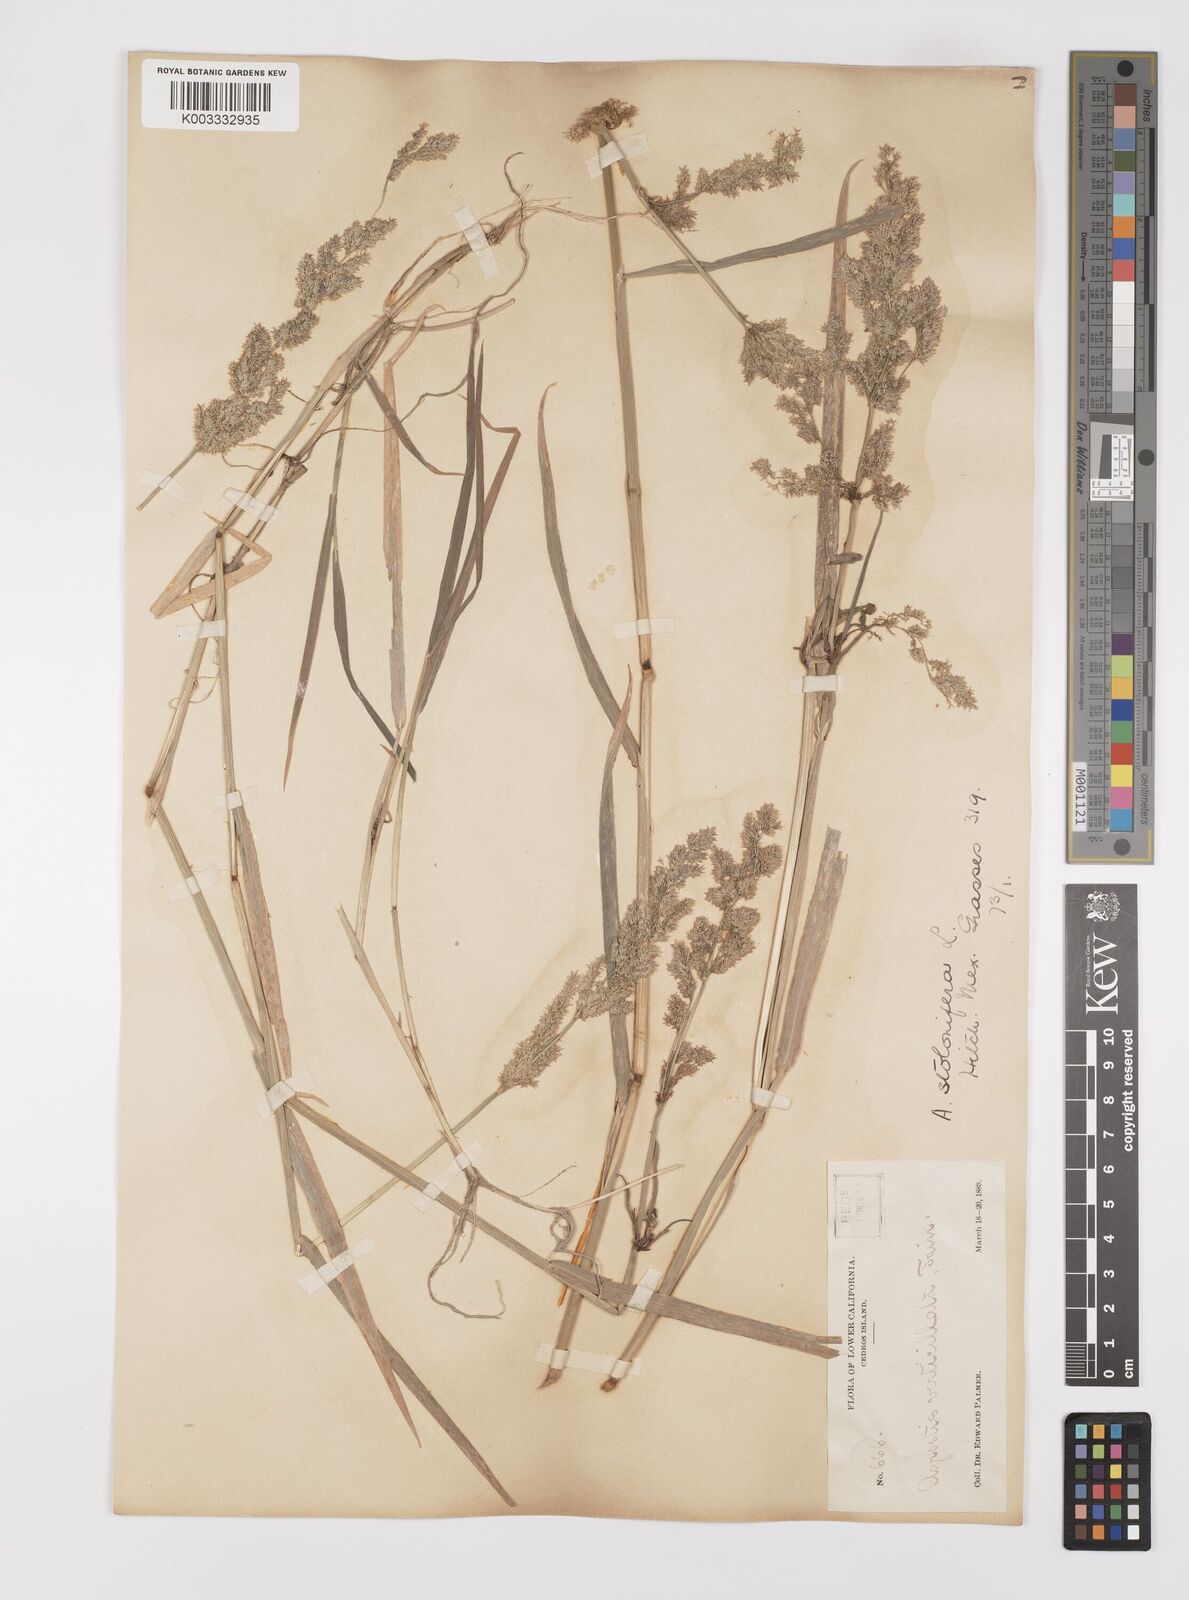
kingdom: Plantae
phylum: Tracheophyta
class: Liliopsida
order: Poales
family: Poaceae
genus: Polypogon
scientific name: Polypogon viridis
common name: Water bent
